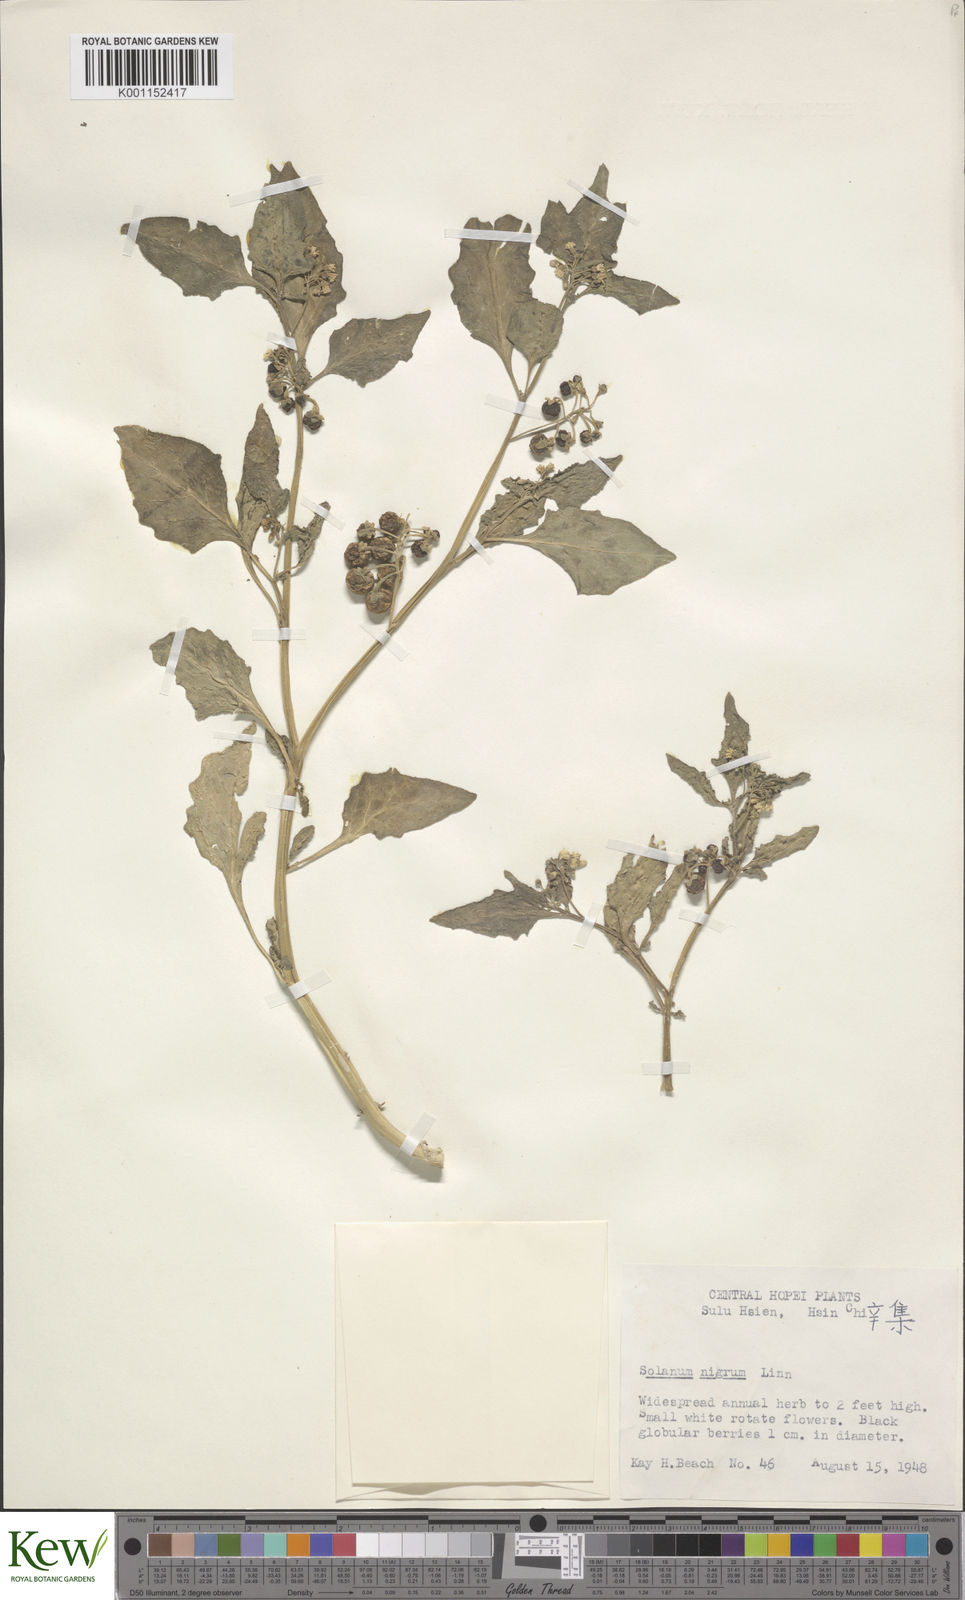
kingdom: Plantae
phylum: Tracheophyta
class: Magnoliopsida
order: Solanales
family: Solanaceae
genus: Solanum
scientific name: Solanum scabrum
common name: Garden-huckleberry
